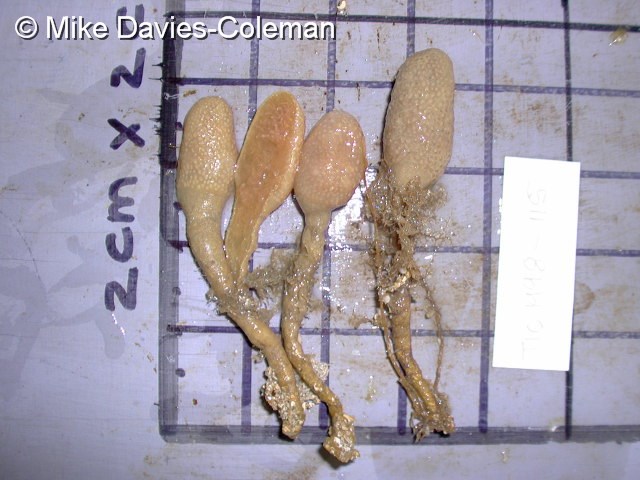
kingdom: Animalia
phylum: Chordata
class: Ascidiacea
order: Aplousobranchia
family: Pseudodistomidae
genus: Pseudodistoma
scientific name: Pseudodistoma africanum
